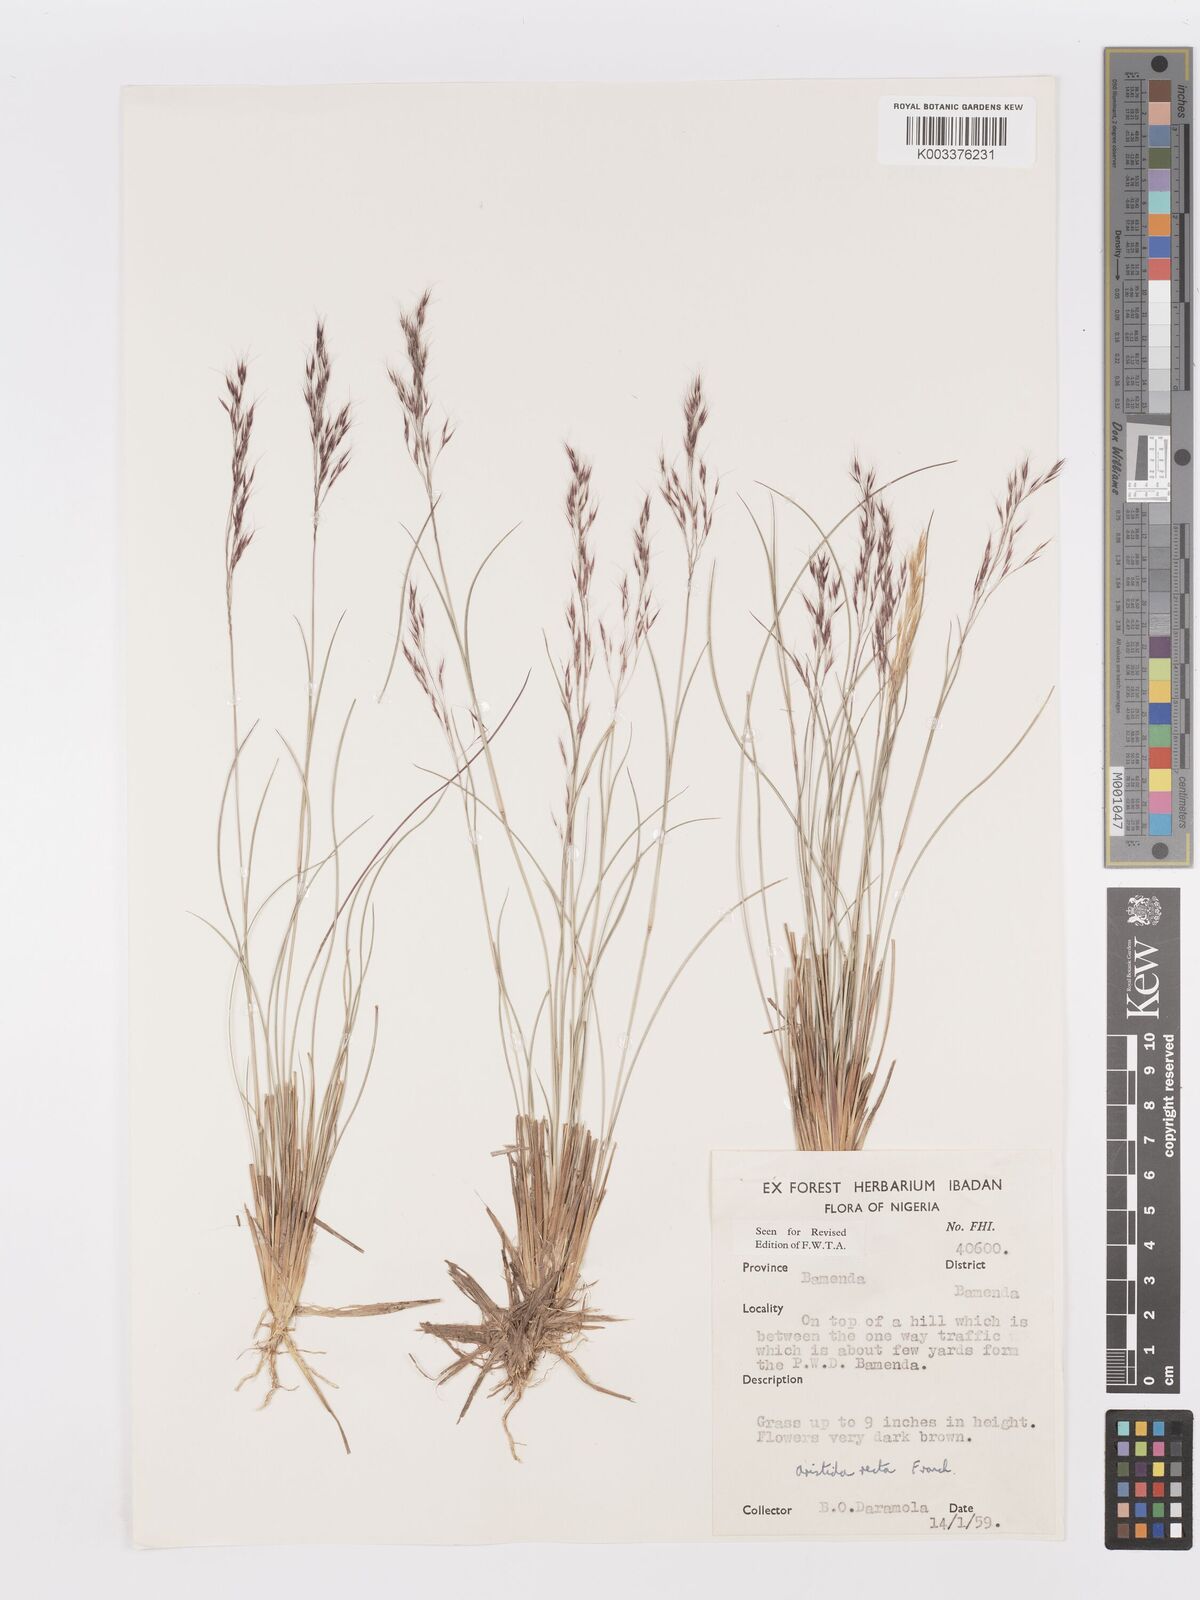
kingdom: Plantae
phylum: Tracheophyta
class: Liliopsida
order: Poales
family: Poaceae
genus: Aristida
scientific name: Aristida recta
